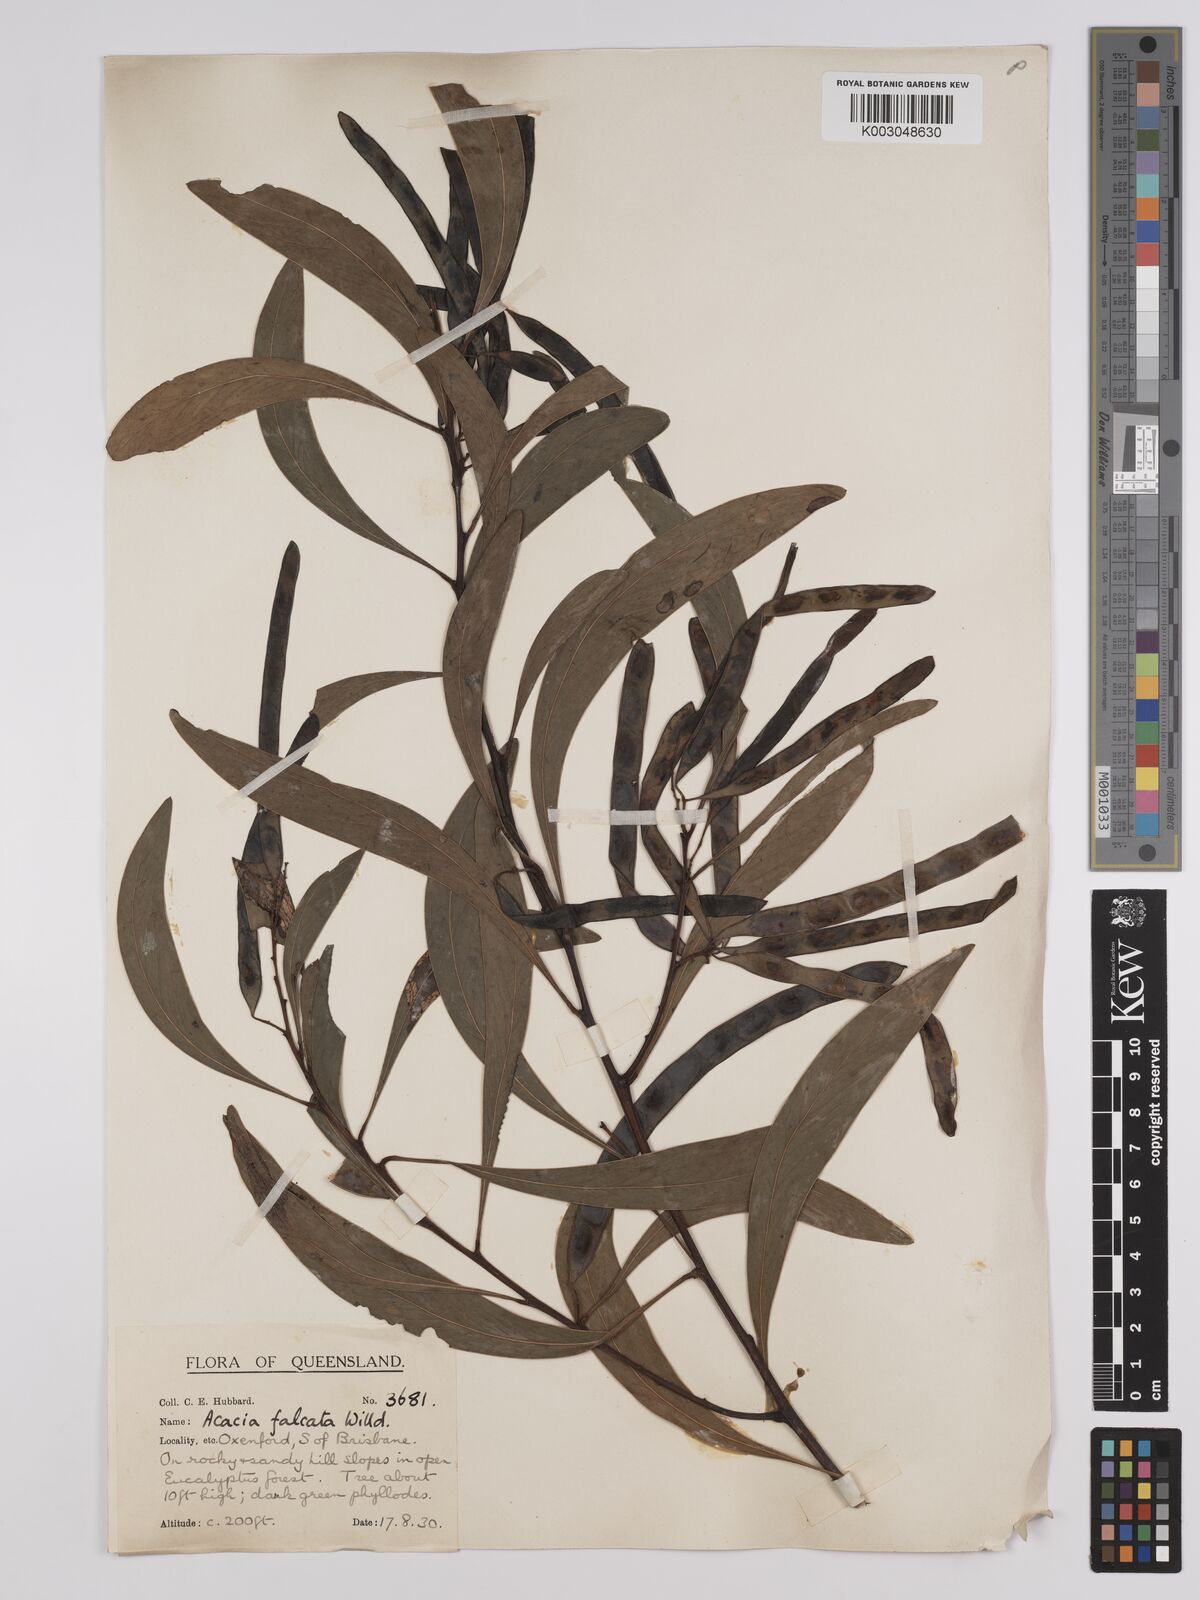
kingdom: Plantae
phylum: Tracheophyta
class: Magnoliopsida
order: Fabales
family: Fabaceae
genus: Acacia
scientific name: Acacia falcata
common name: Burra acacia
